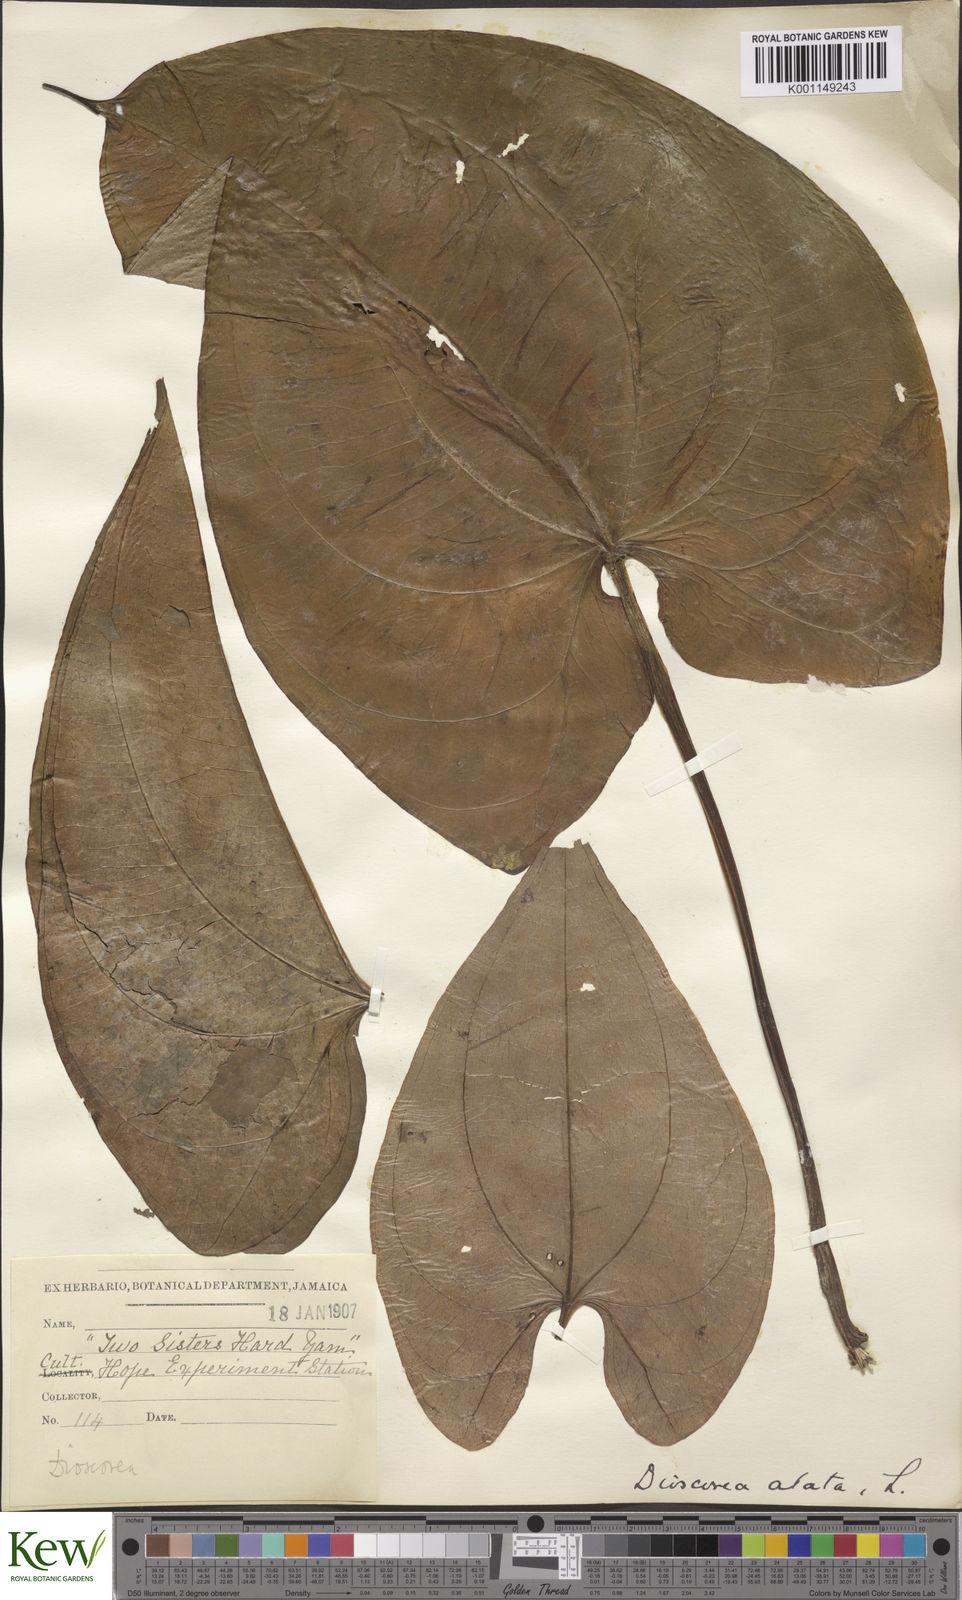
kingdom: Plantae
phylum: Tracheophyta
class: Liliopsida
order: Dioscoreales
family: Dioscoreaceae
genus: Dioscorea
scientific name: Dioscorea alata
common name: Water yam
